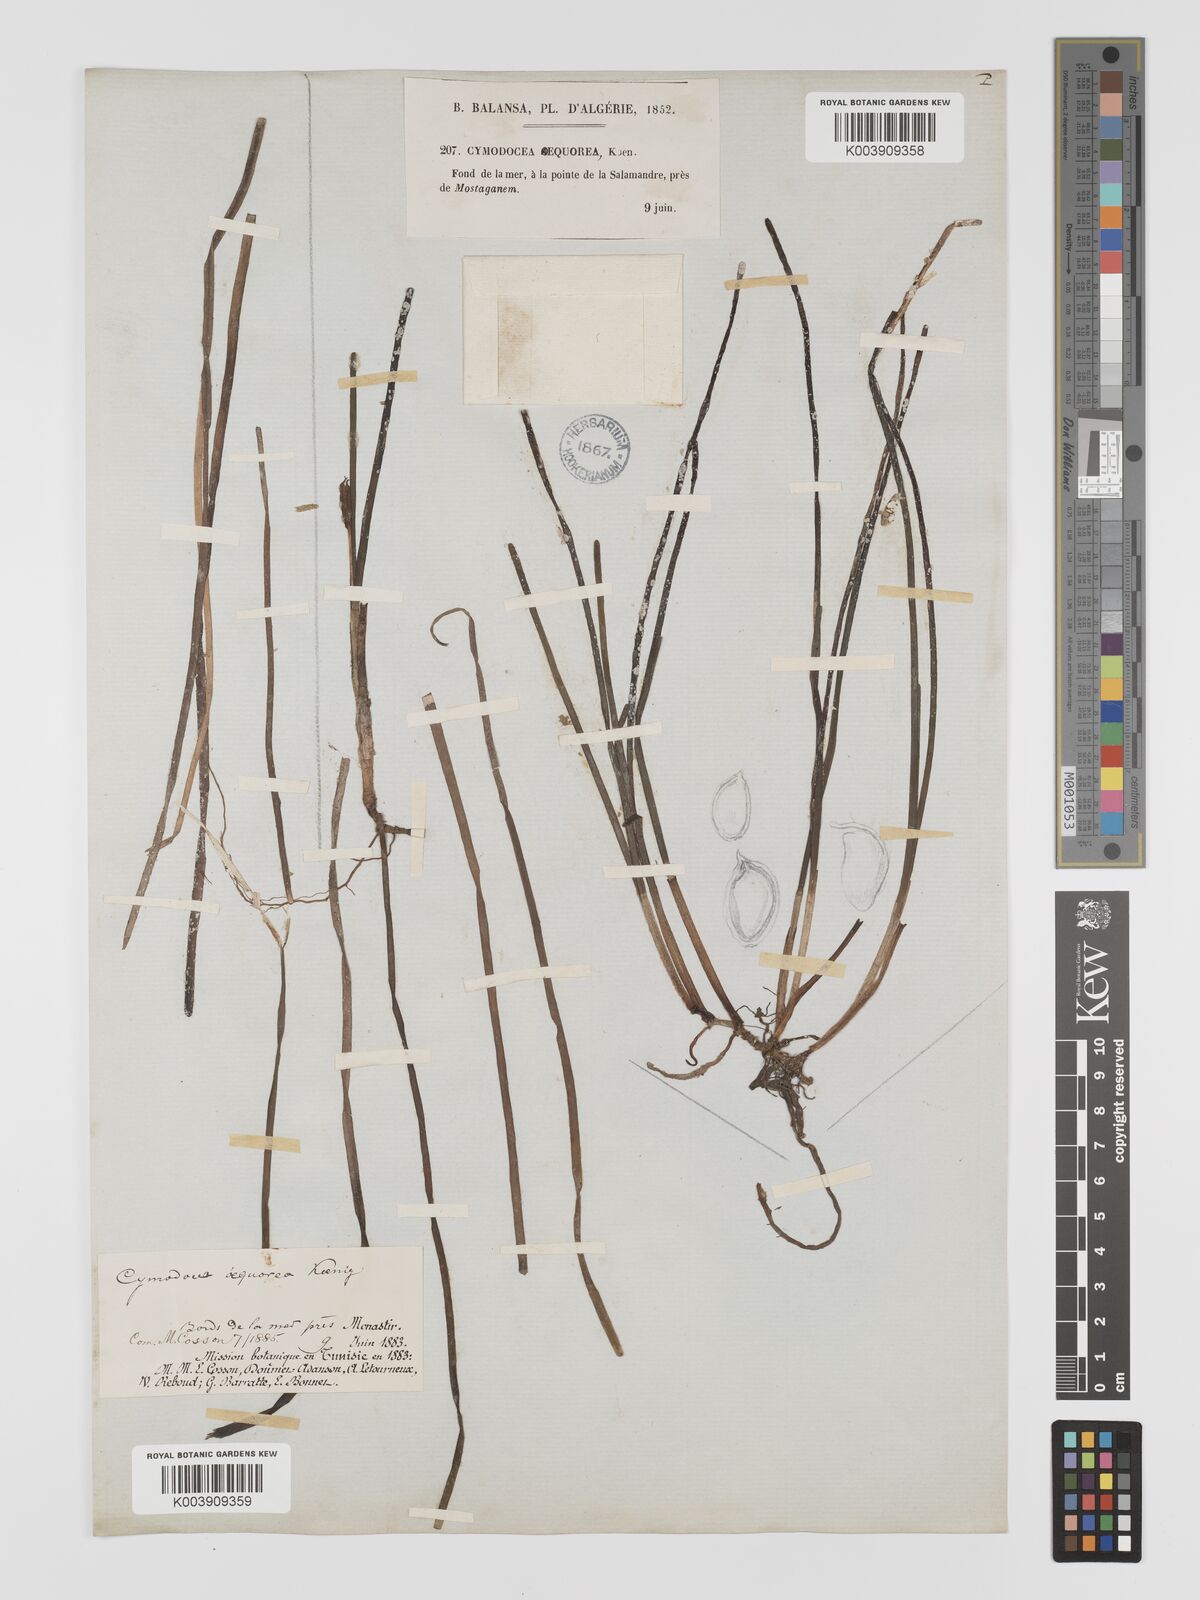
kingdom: Plantae
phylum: Tracheophyta
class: Liliopsida
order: Alismatales
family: Cymodoceaceae
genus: Cymodocea
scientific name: Cymodocea nodosa
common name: Slender seagrass
